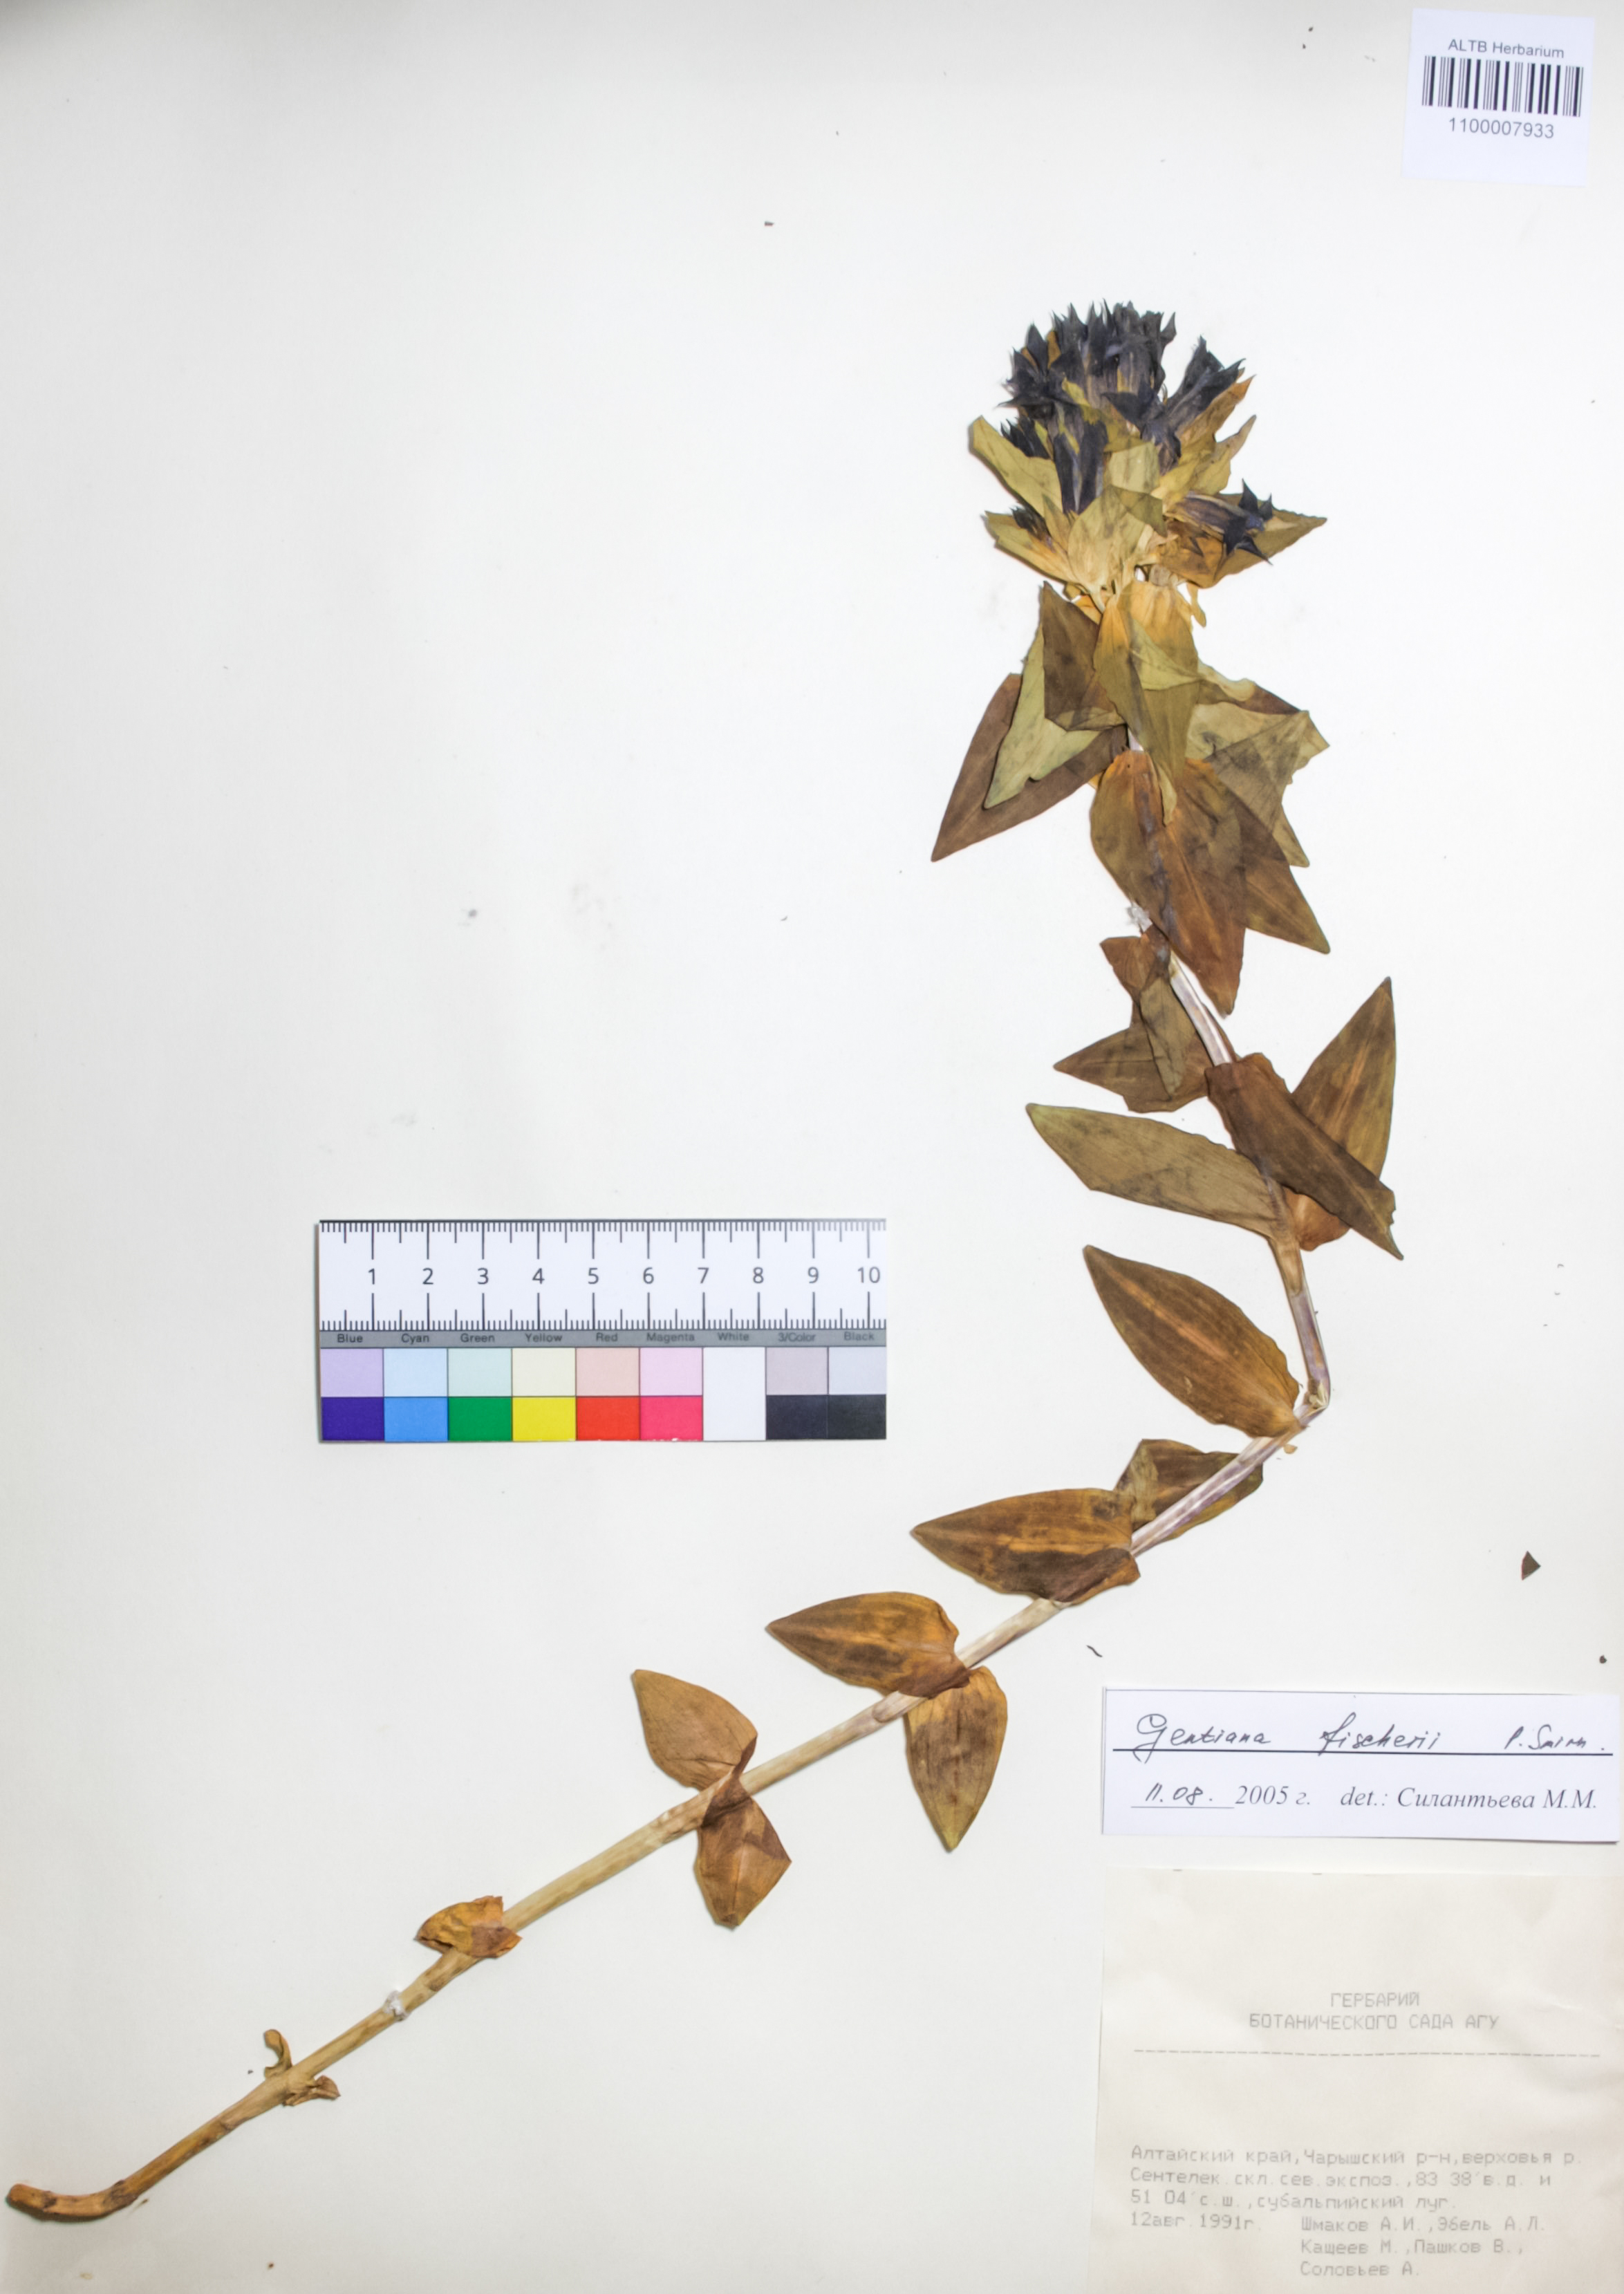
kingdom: Plantae
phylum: Tracheophyta
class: Liliopsida
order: Poales
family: Poaceae
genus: Hordeum
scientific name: Hordeum jubatum
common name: Foxtail barley
